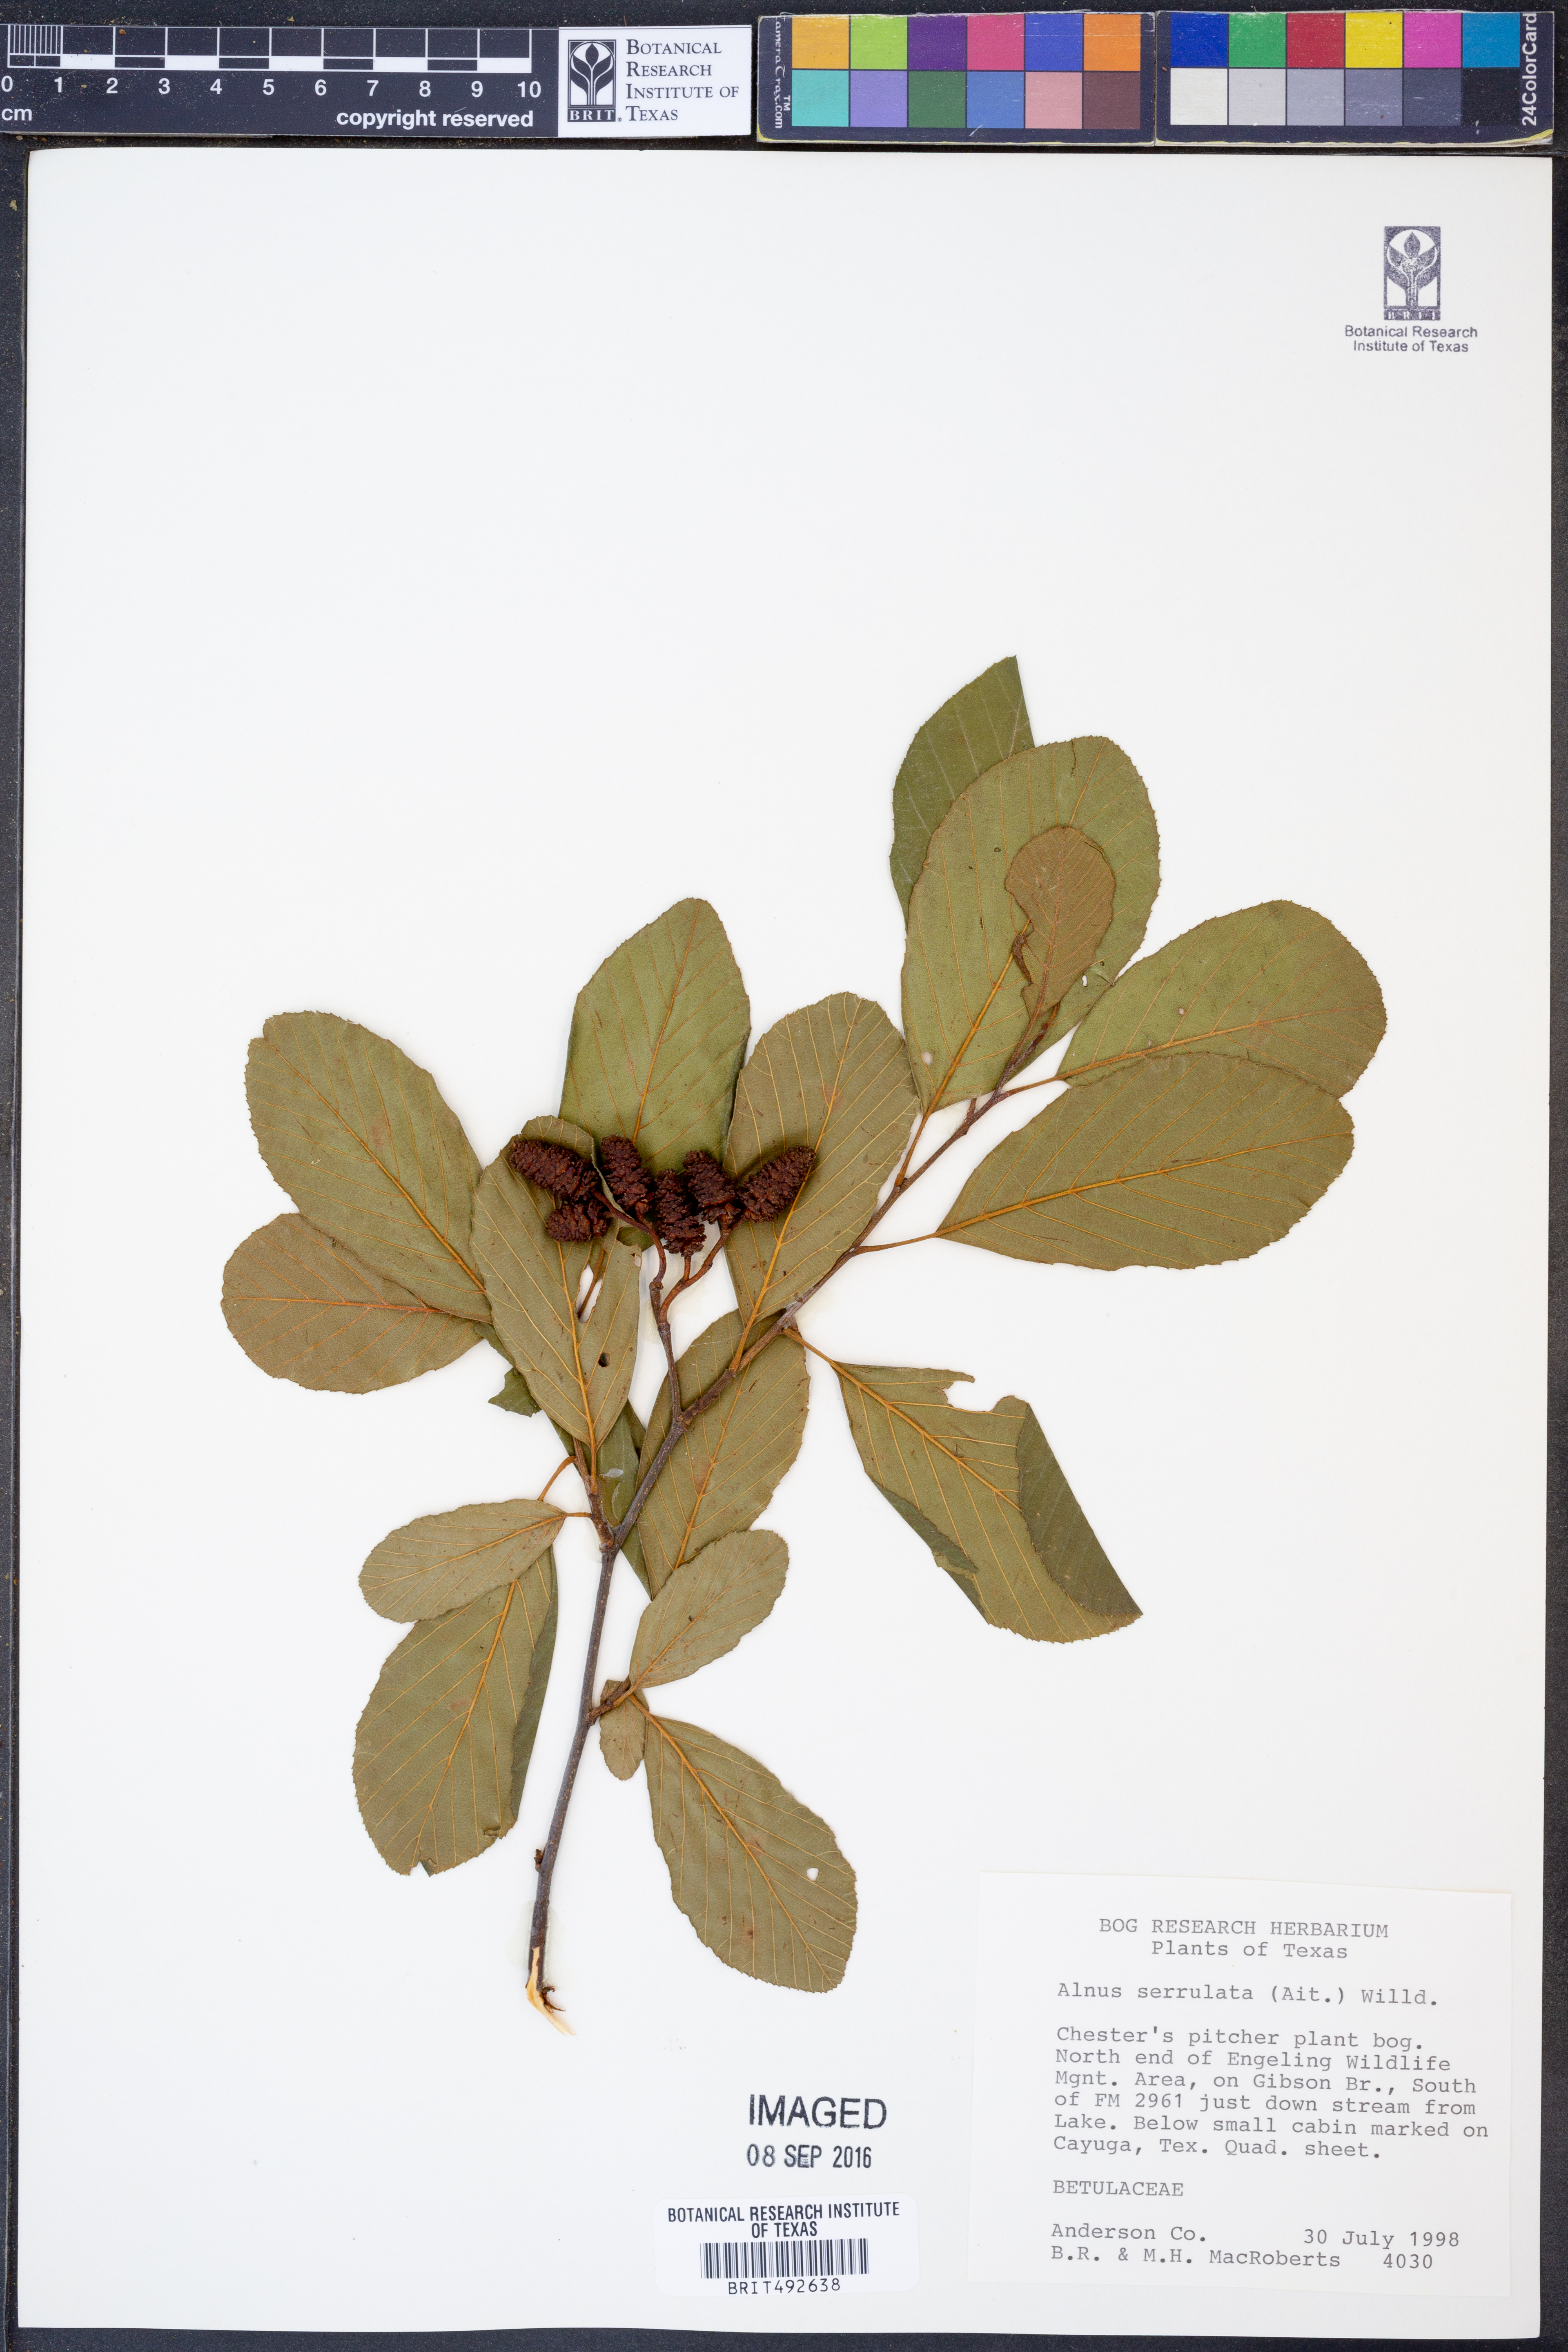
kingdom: Plantae
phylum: Tracheophyta
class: Magnoliopsida
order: Fagales
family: Betulaceae
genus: Alnus
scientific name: Alnus serrulata
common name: Hazel alder
